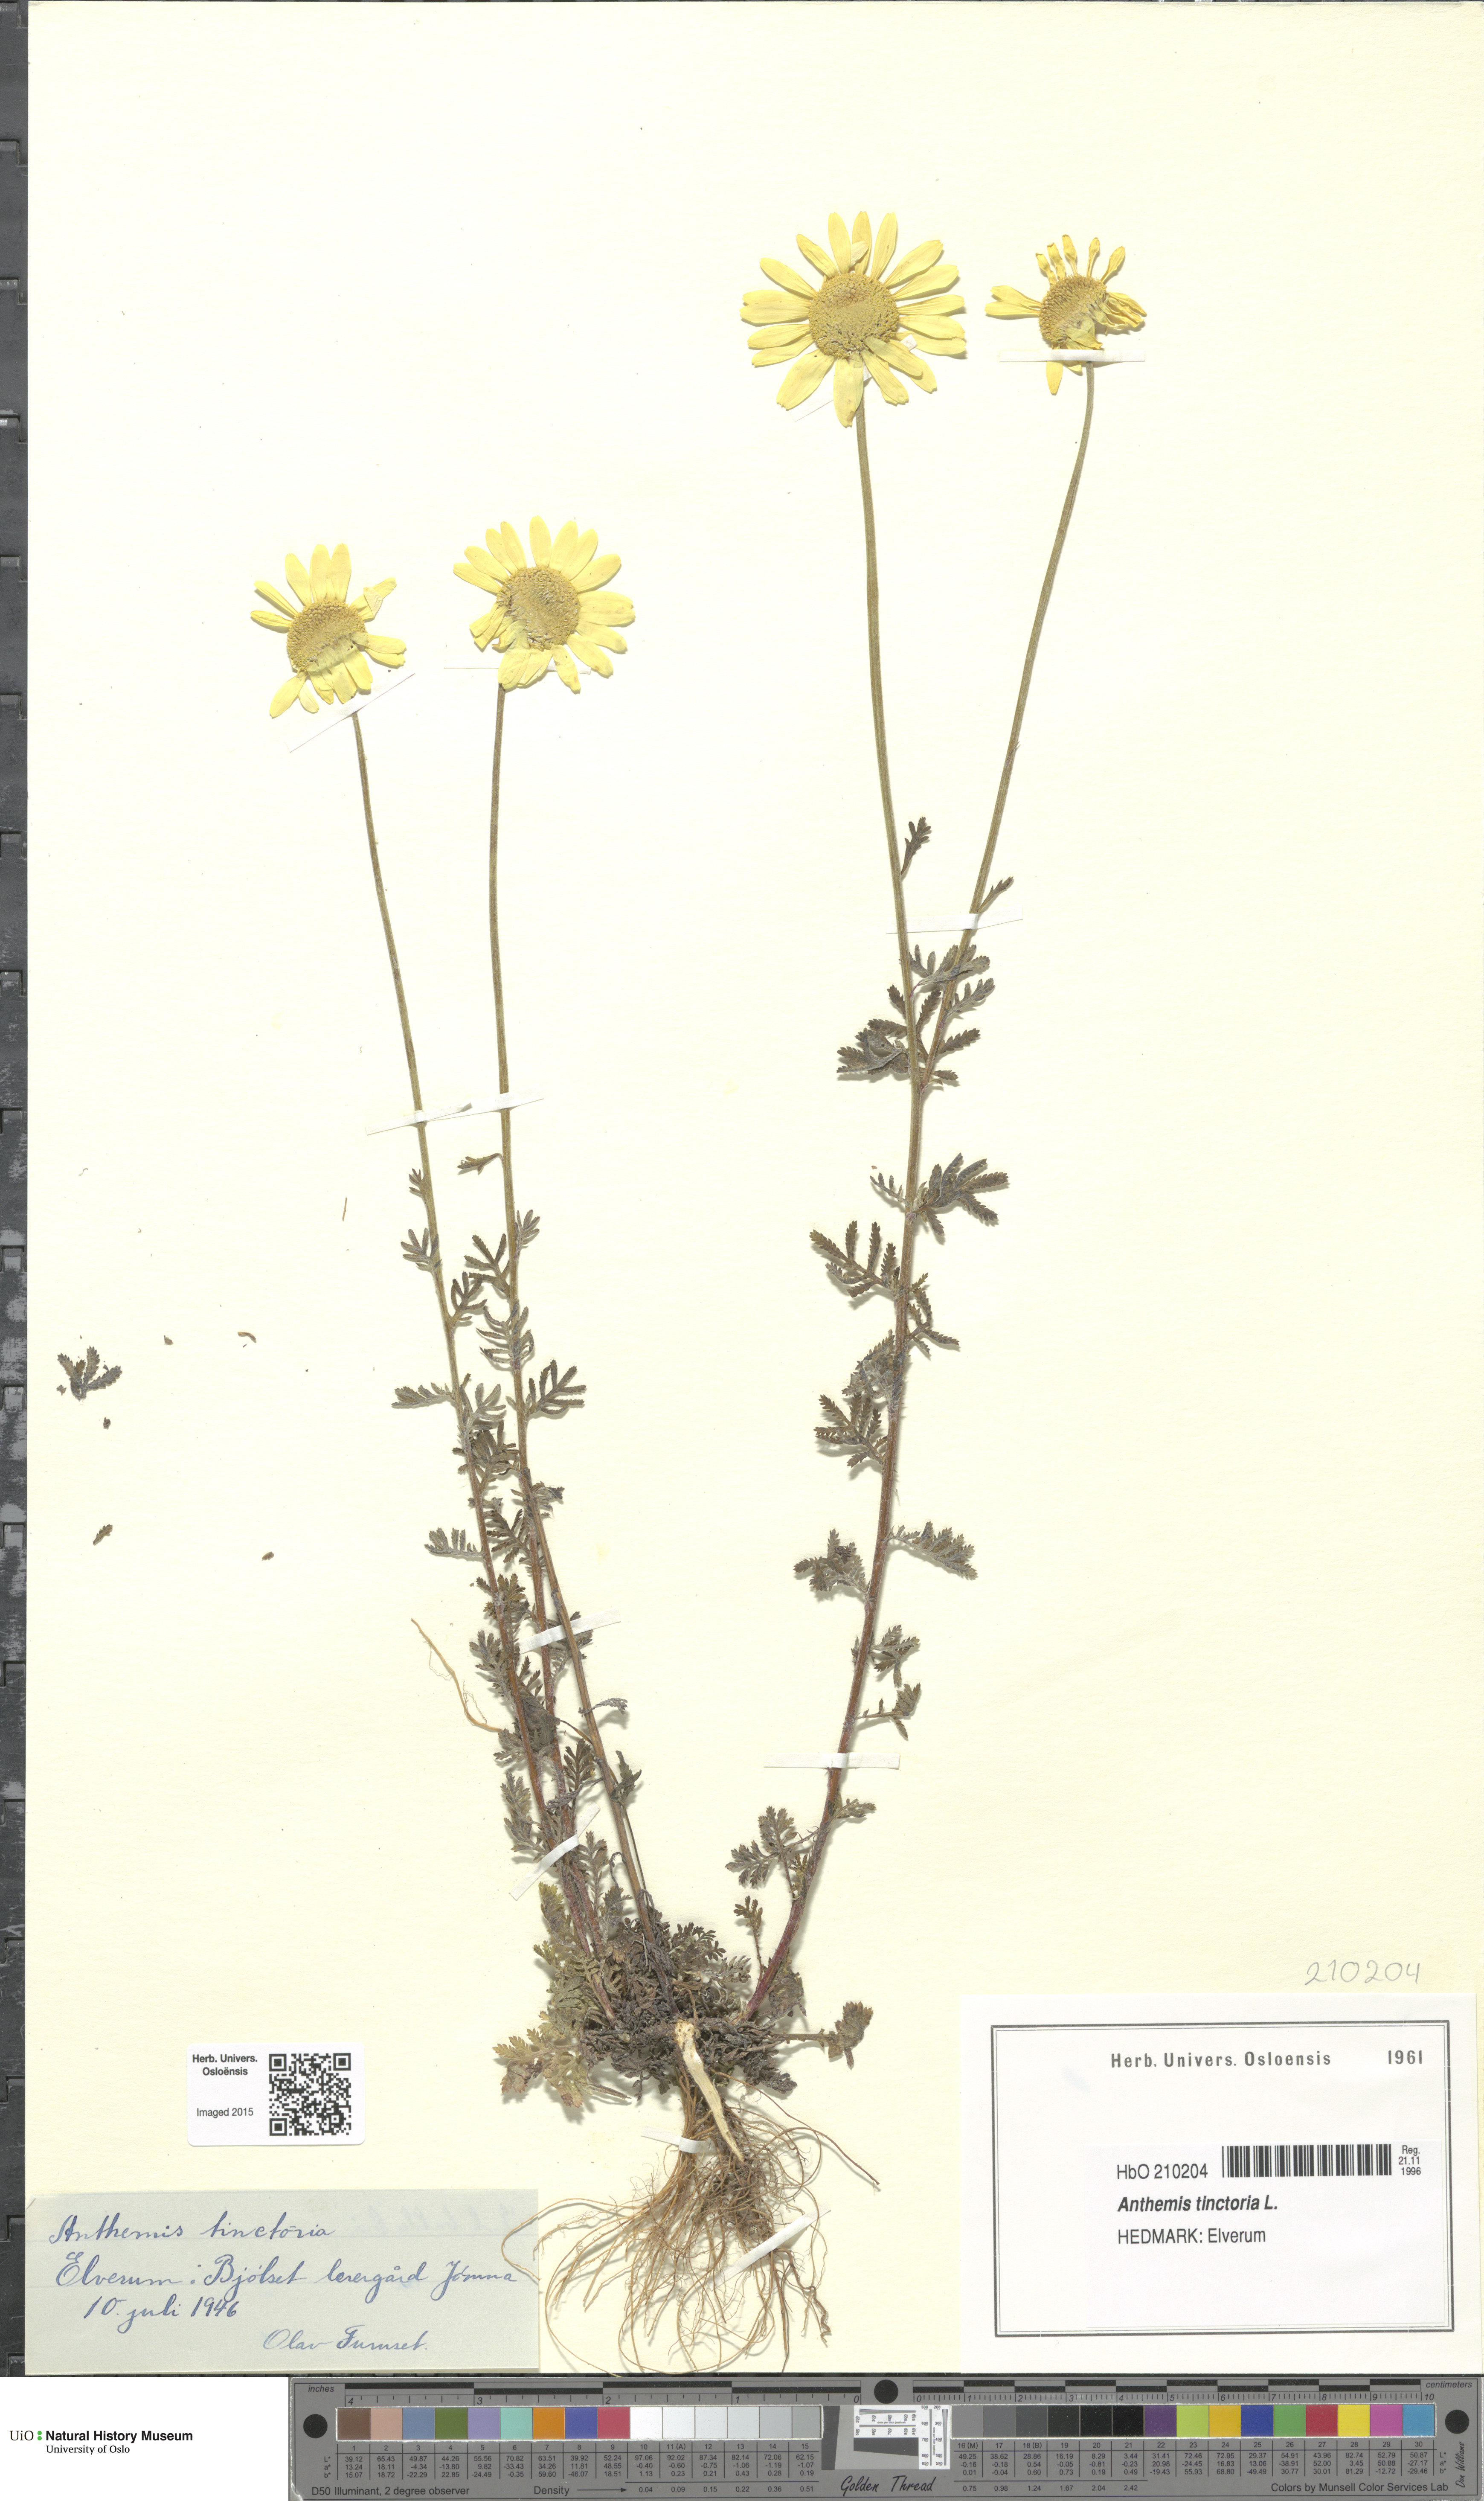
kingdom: Plantae
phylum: Tracheophyta
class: Magnoliopsida
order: Asterales
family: Asteraceae
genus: Cota
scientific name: Cota tinctoria
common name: Golden chamomile
